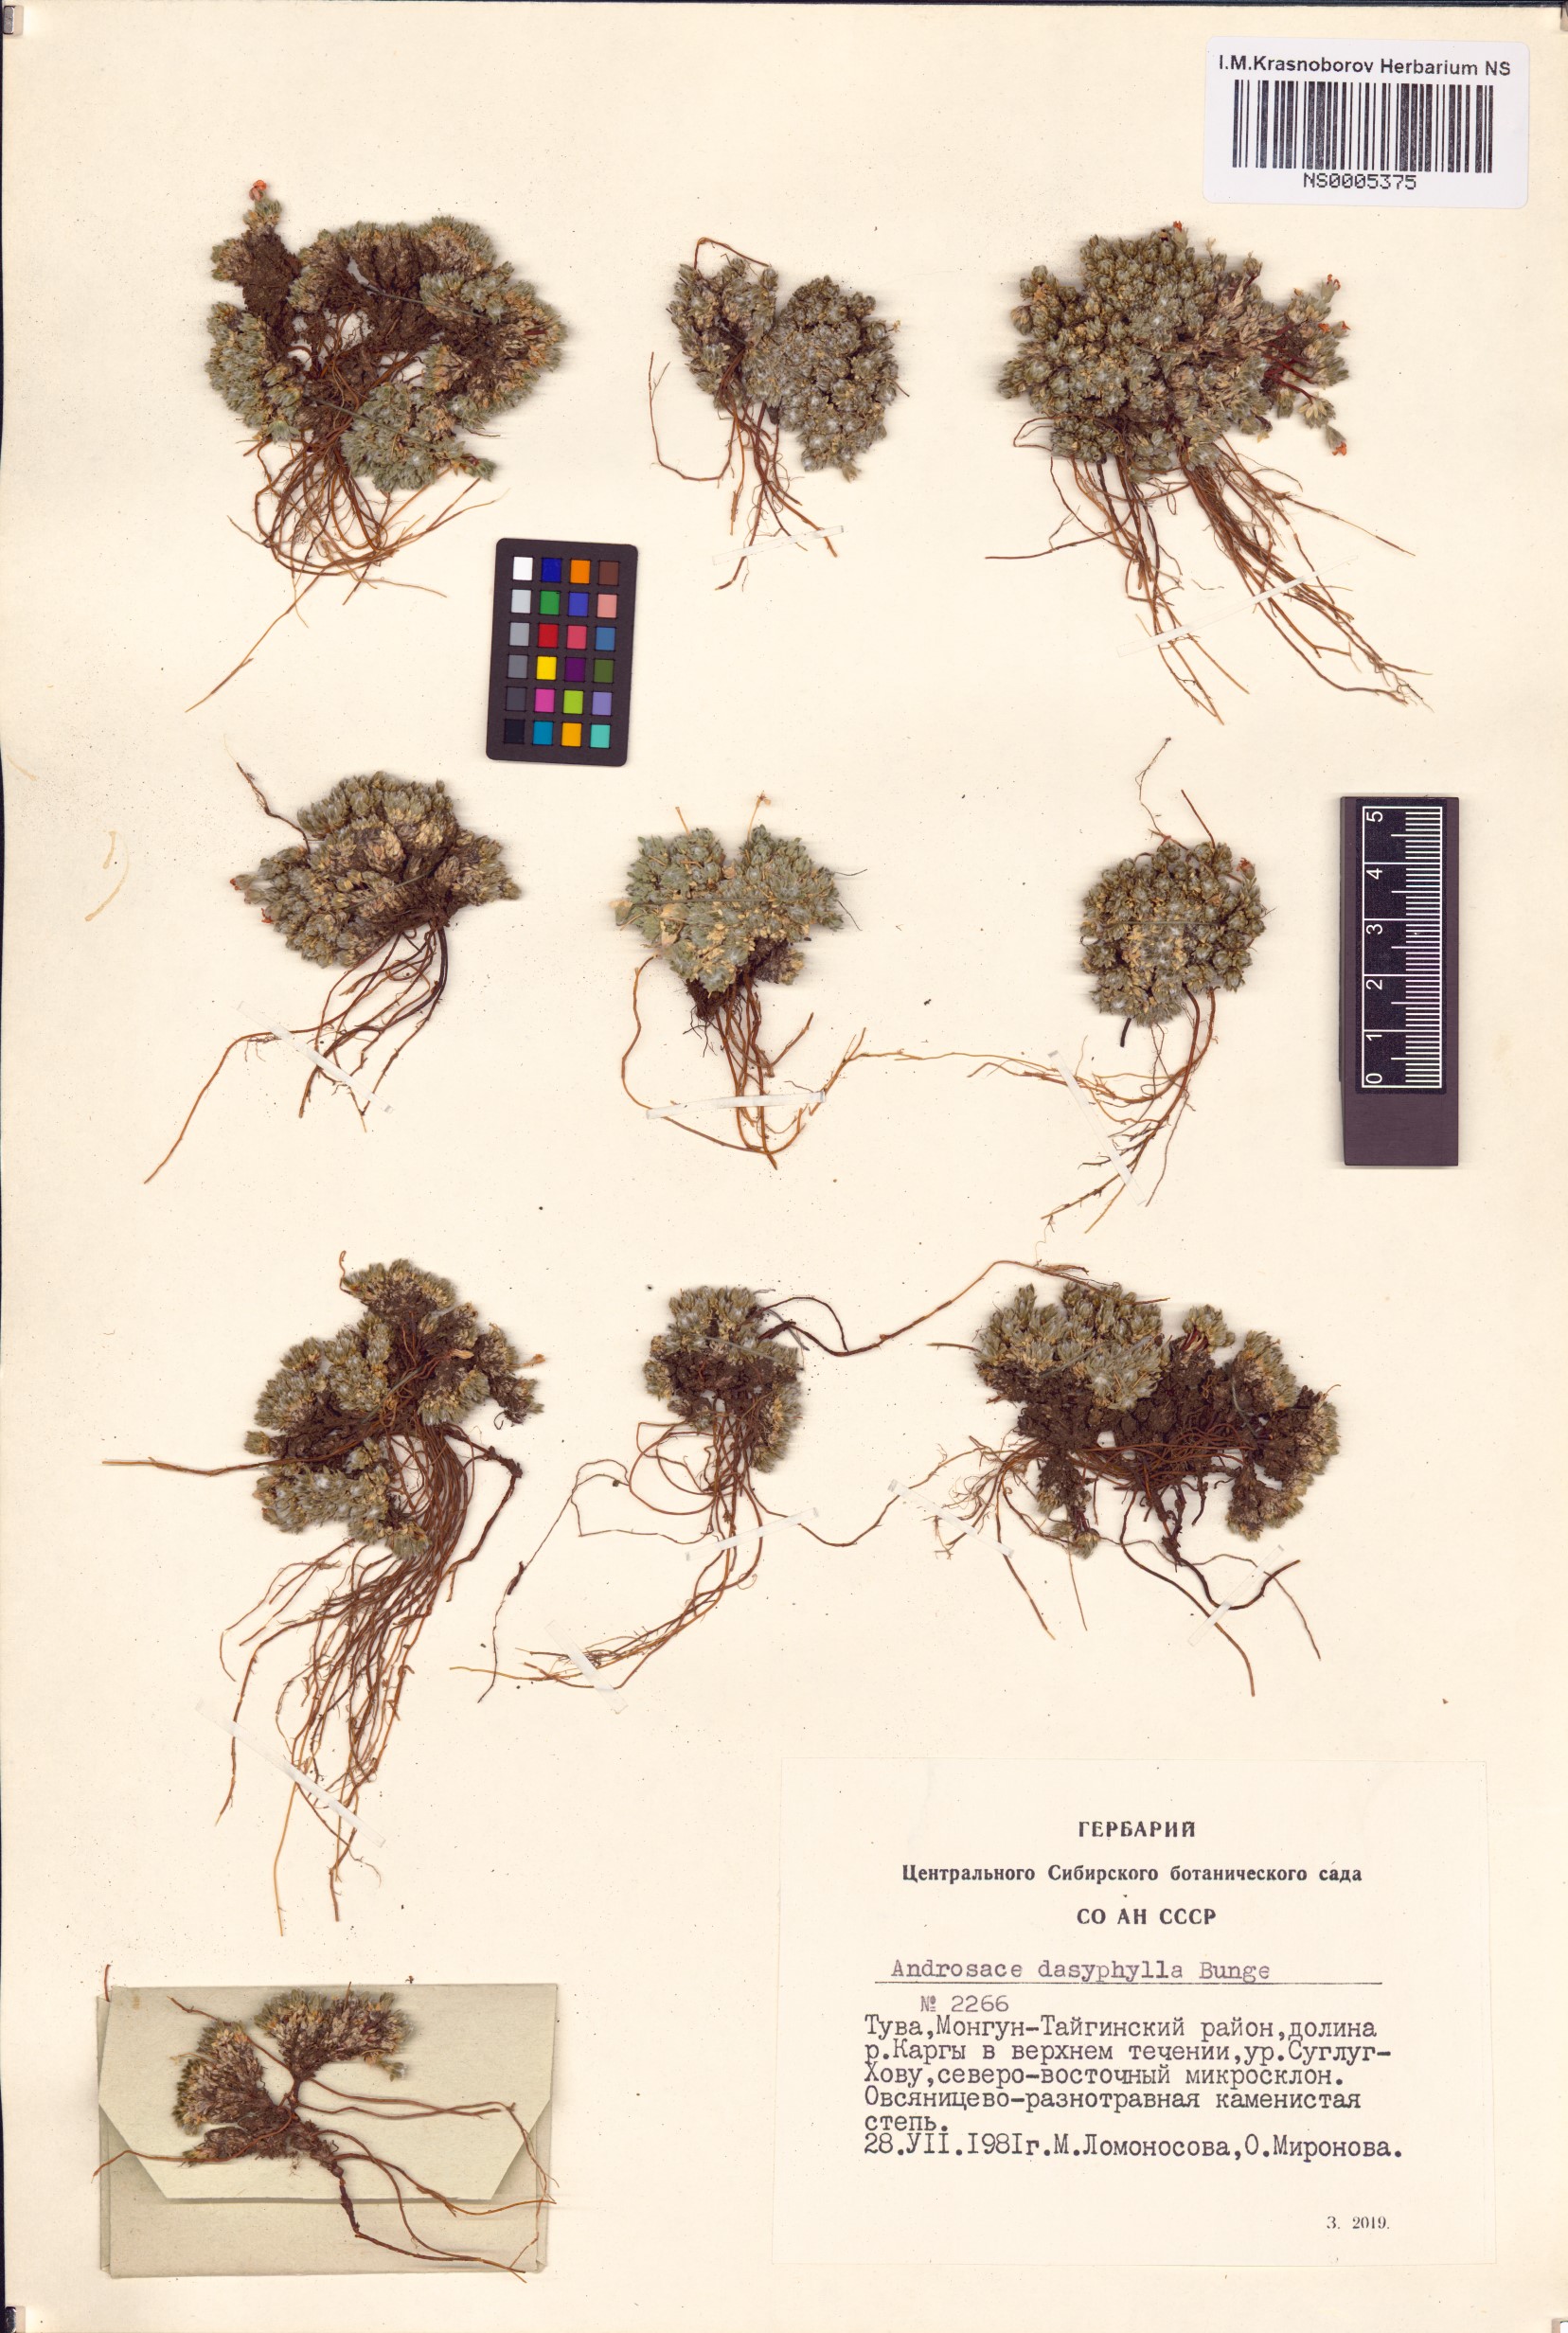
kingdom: Plantae
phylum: Tracheophyta
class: Magnoliopsida
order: Ericales
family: Primulaceae
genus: Androsace
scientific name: Androsace dasyphylla
